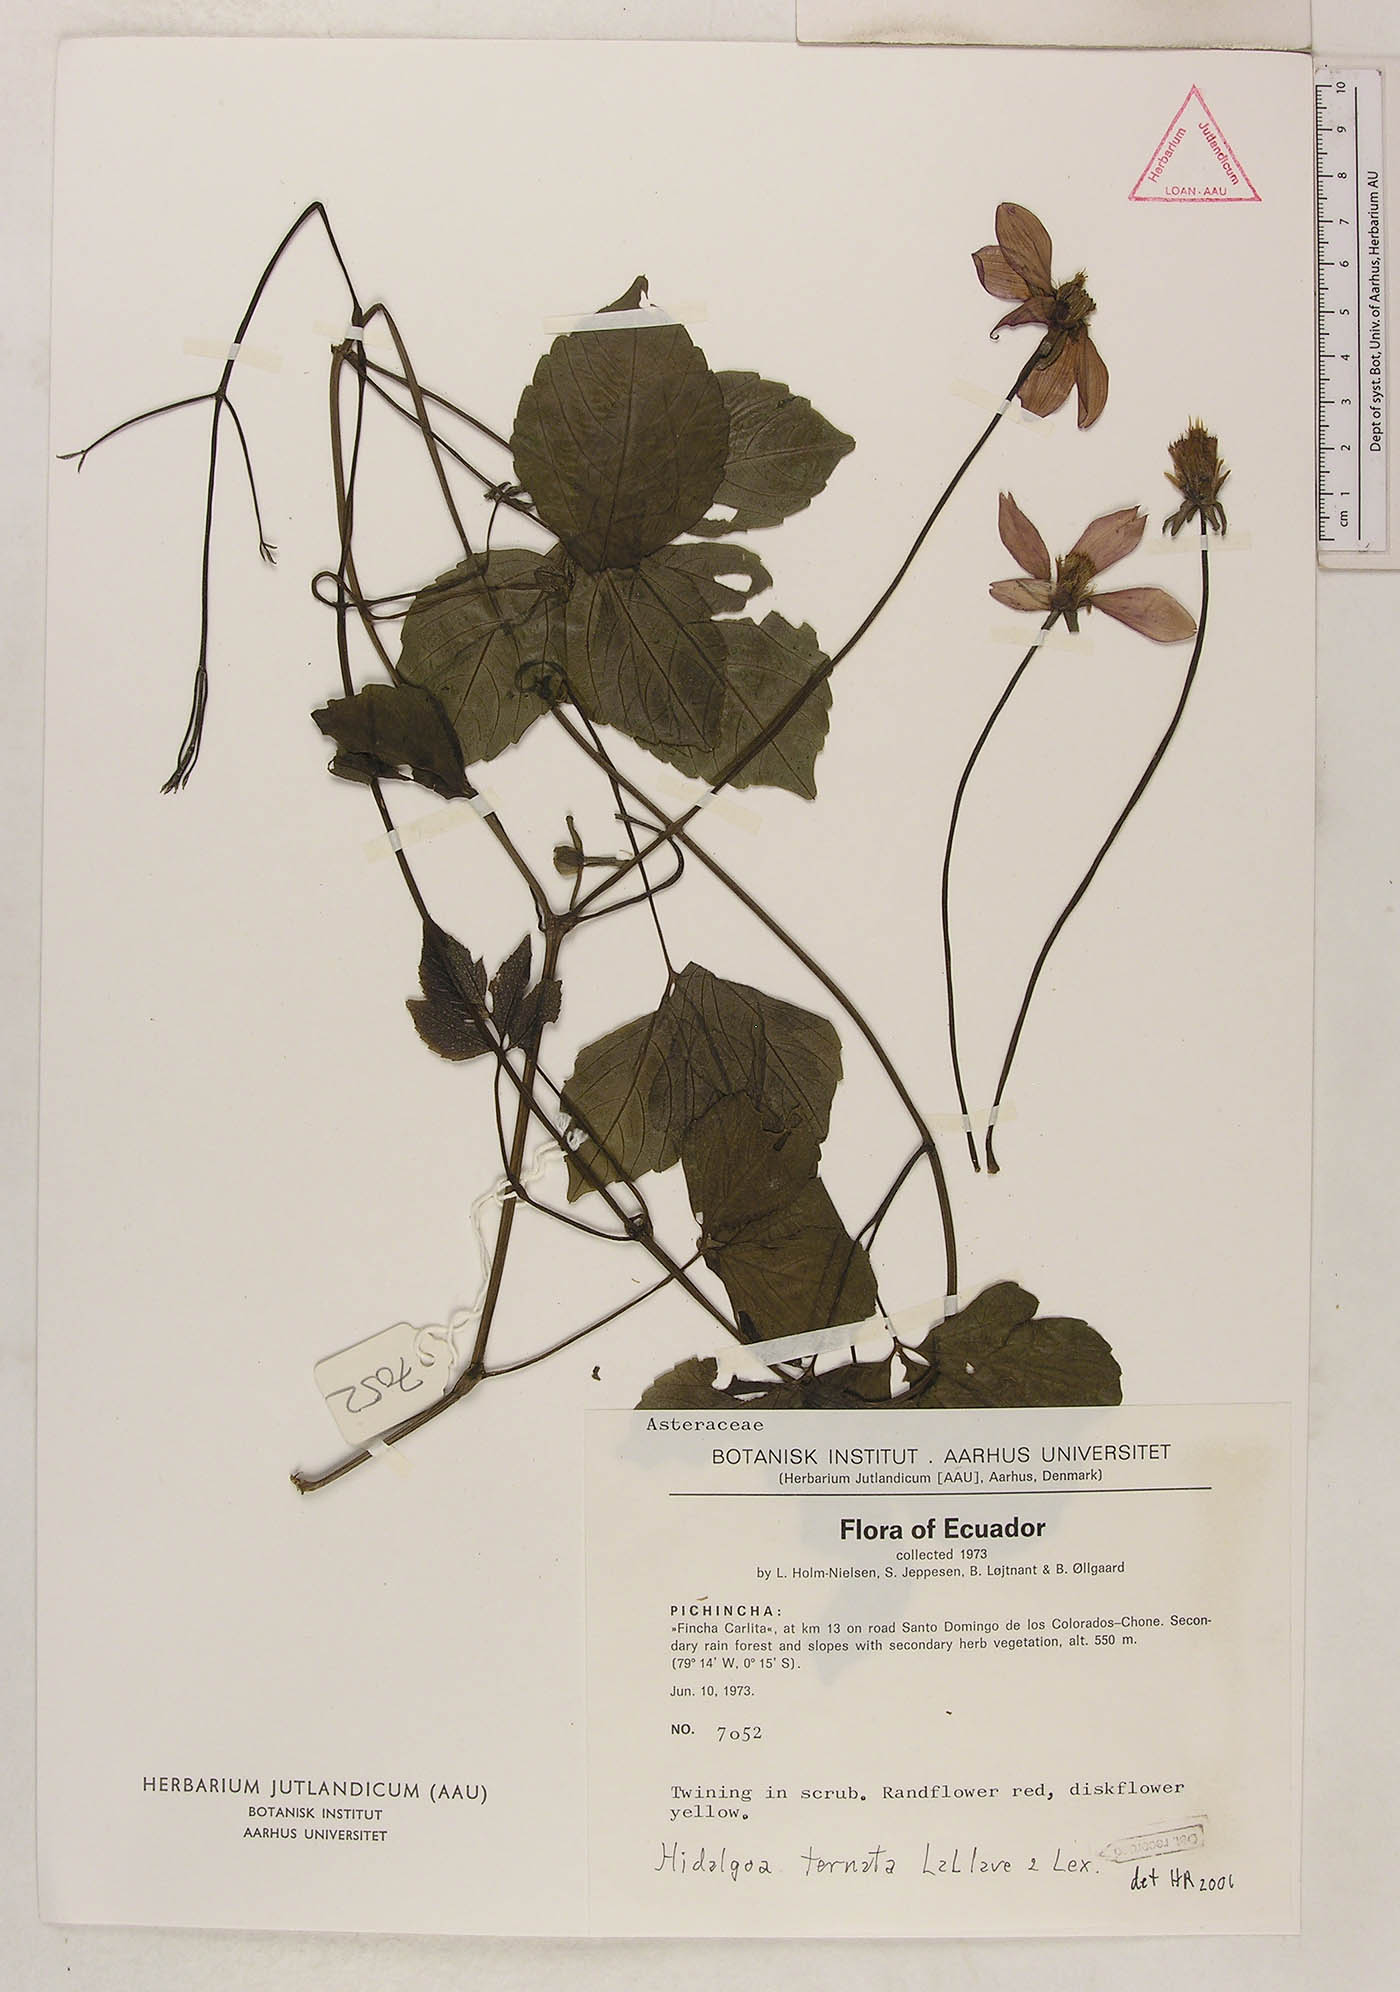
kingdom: Plantae
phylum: Tracheophyta
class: Magnoliopsida
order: Asterales
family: Asteraceae
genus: Hidalgoa
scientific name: Hidalgoa ternata
